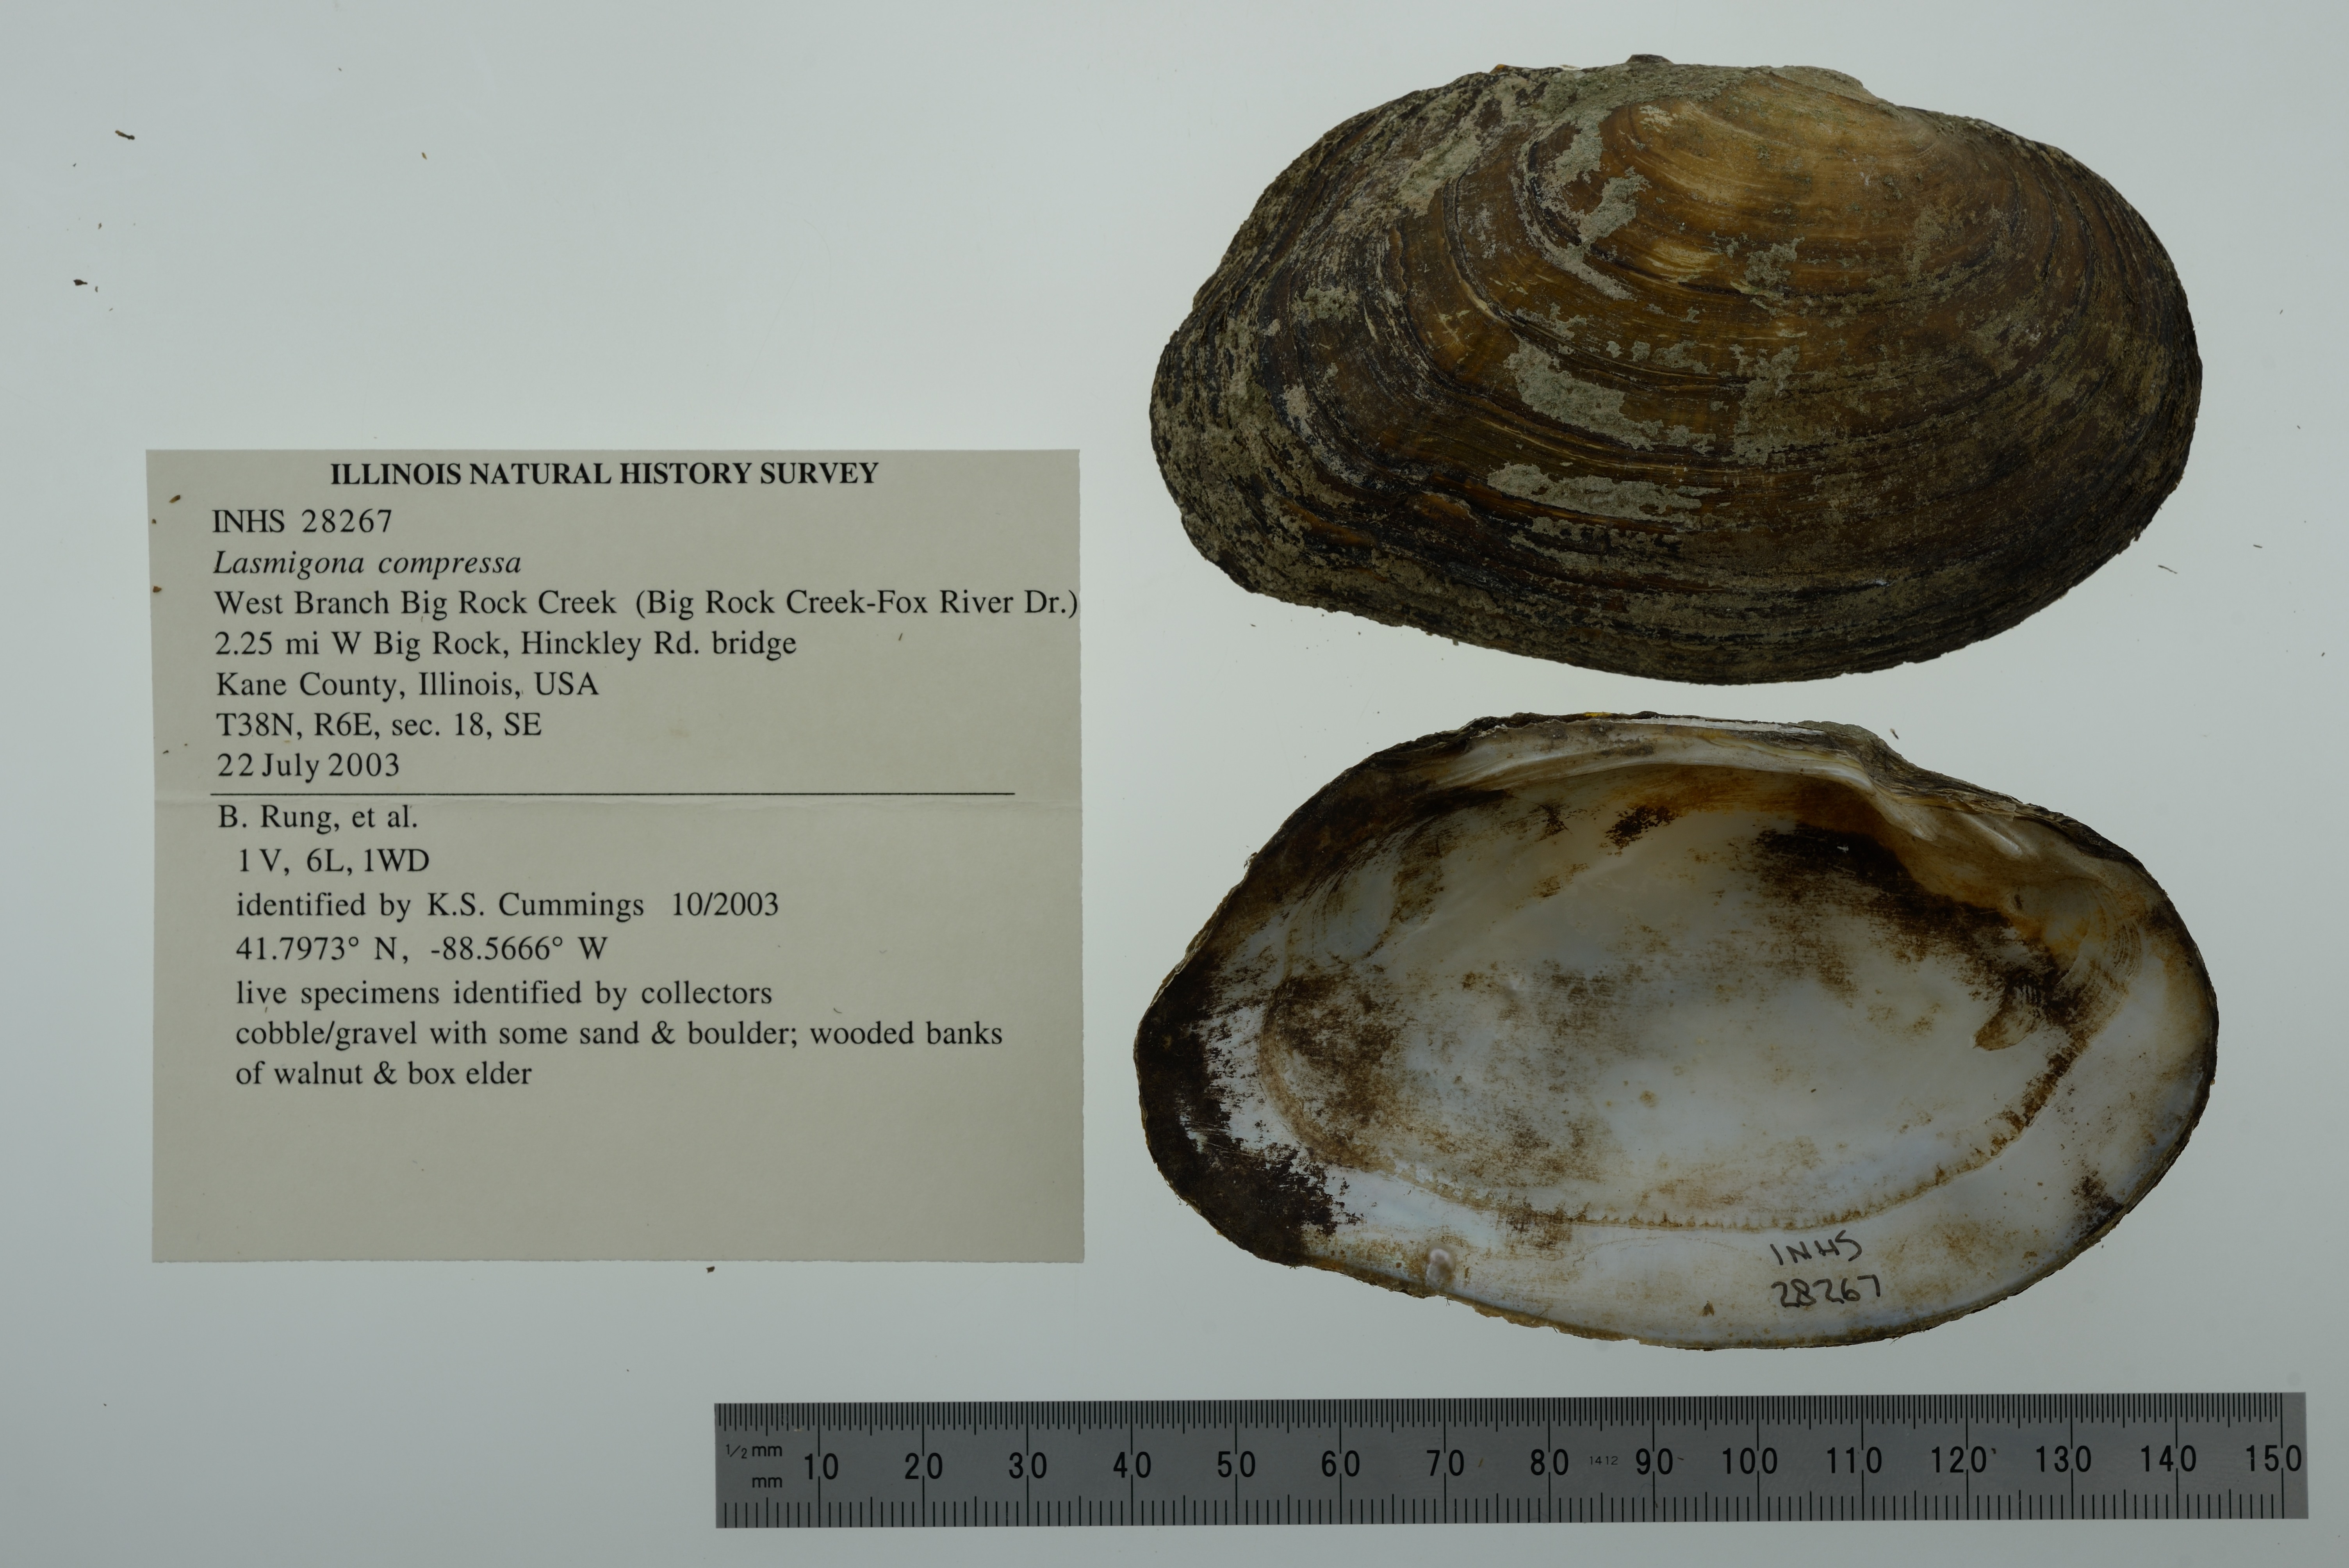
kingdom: Animalia
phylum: Mollusca
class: Bivalvia
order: Unionida
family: Unionidae
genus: Lasmigona
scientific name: Lasmigona compressa
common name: Creek heelsplitter
